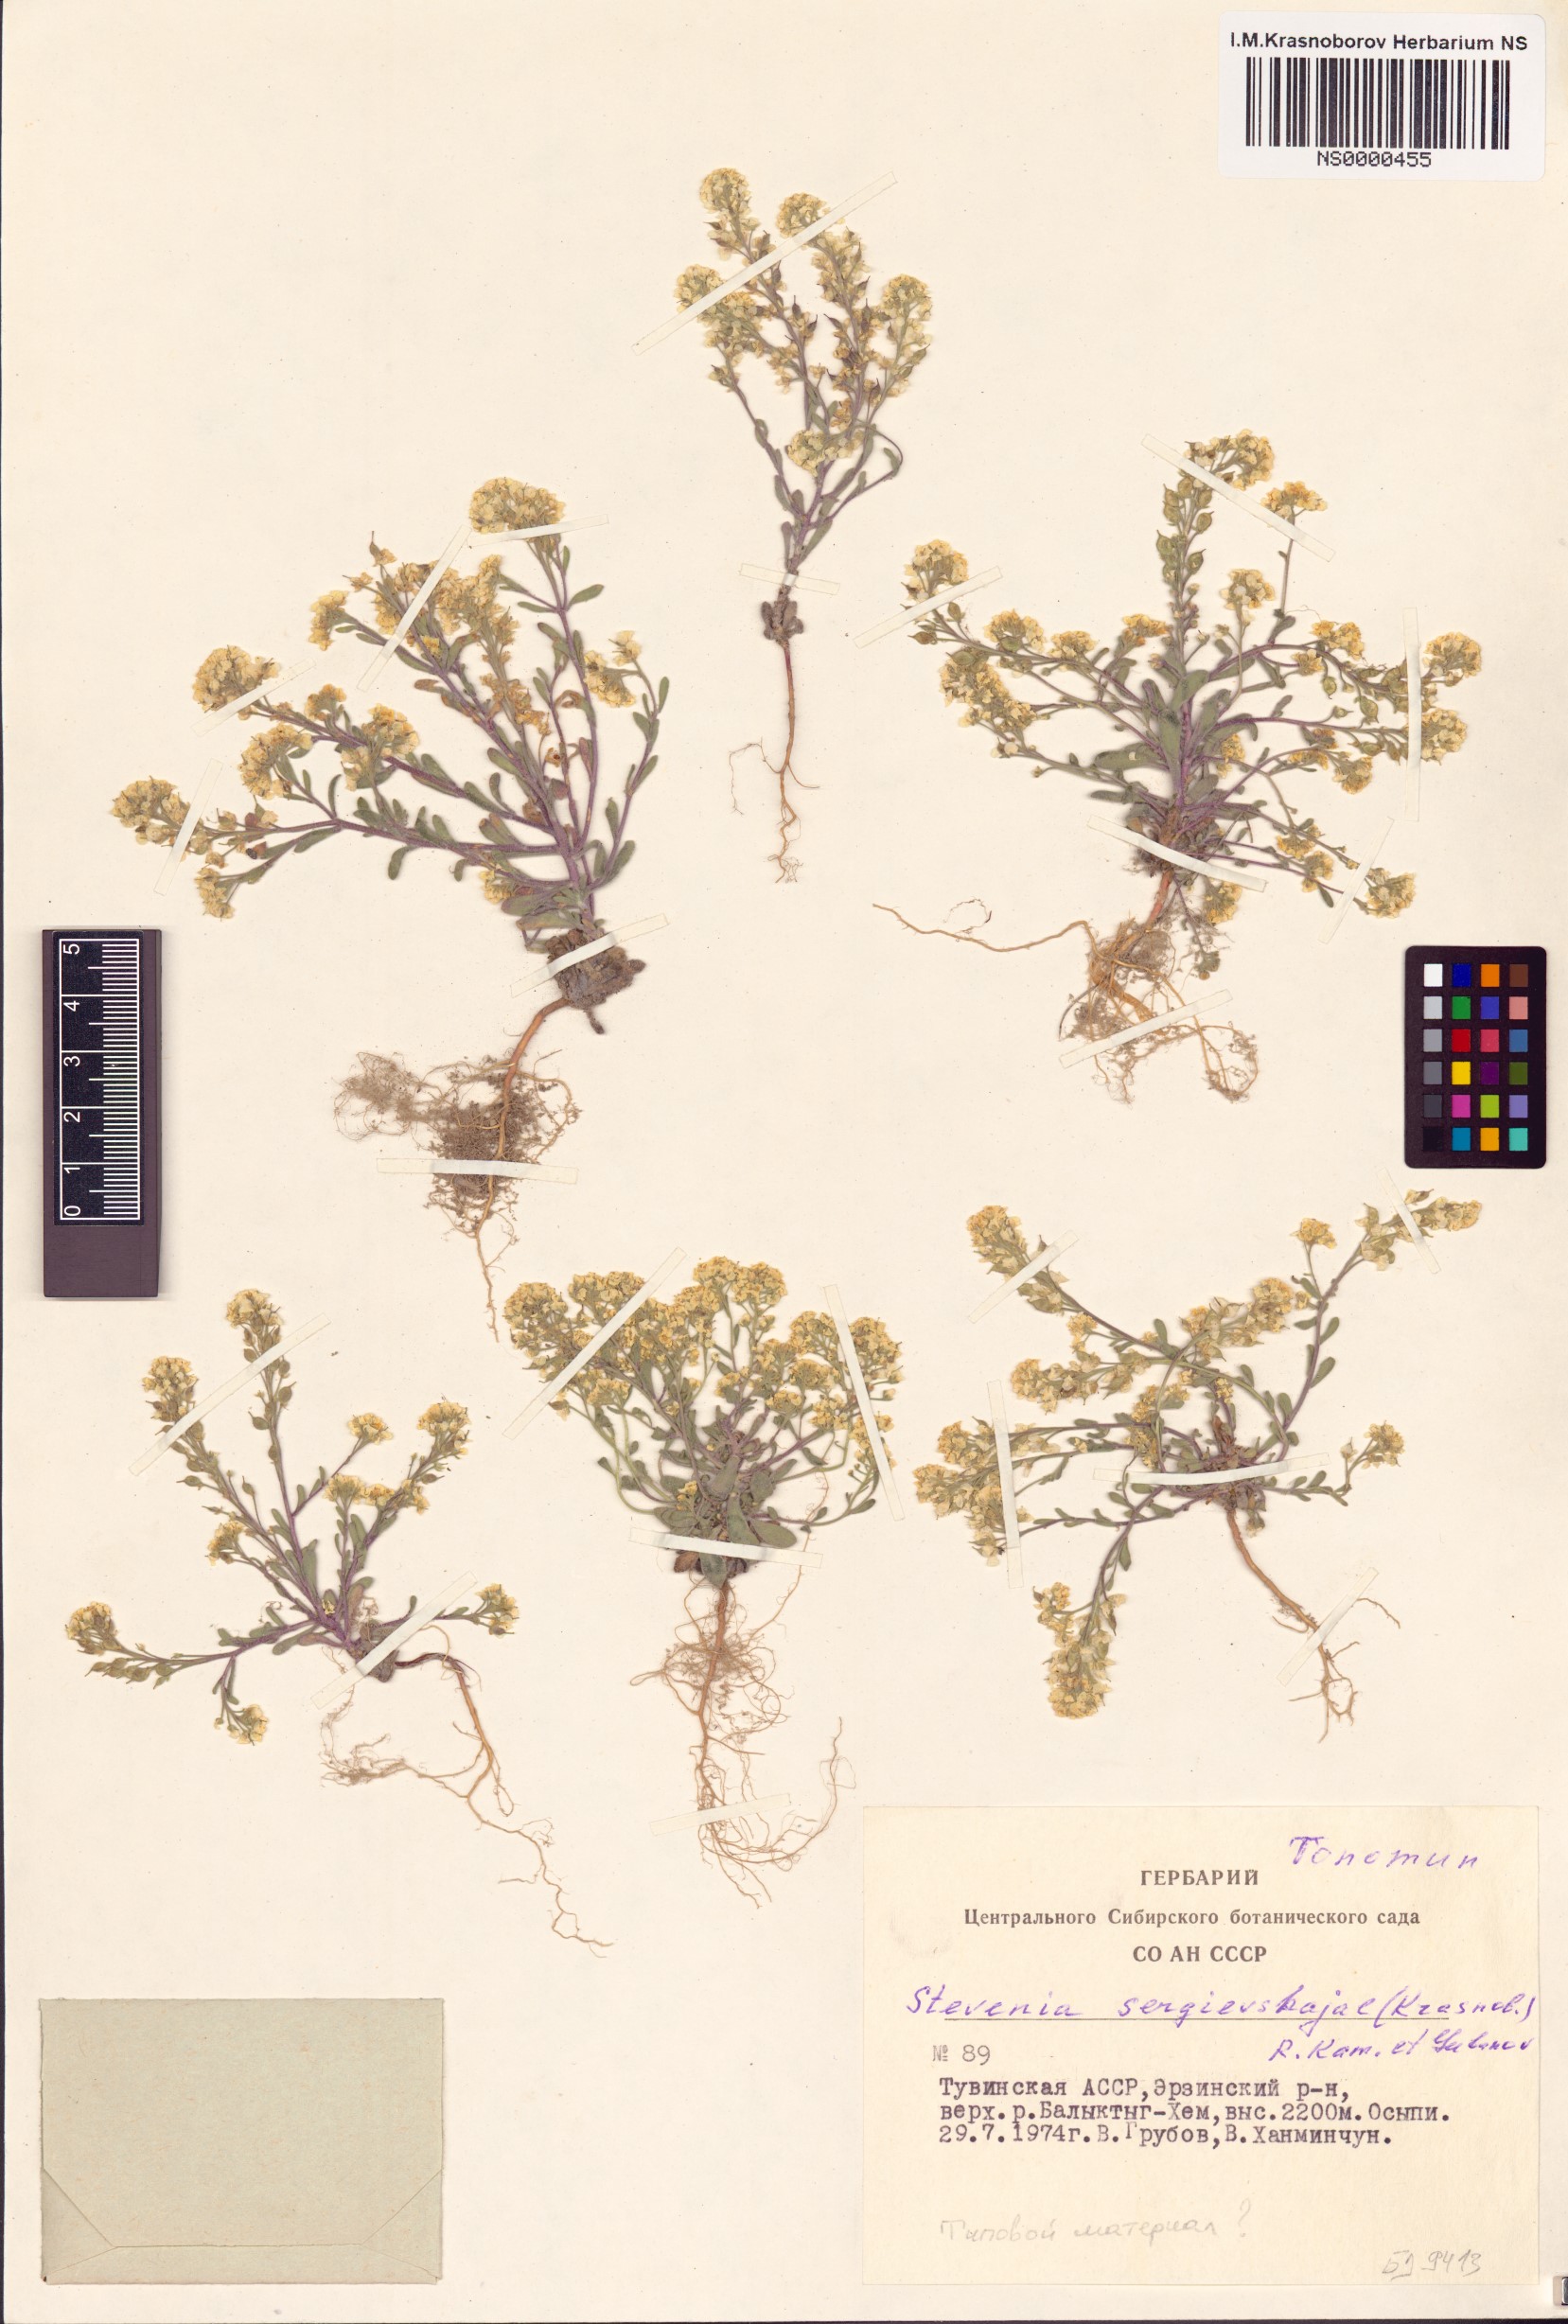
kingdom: Plantae
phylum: Tracheophyta
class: Magnoliopsida
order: Brassicales
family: Brassicaceae
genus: Stevenia
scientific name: Stevenia sergievskajae
